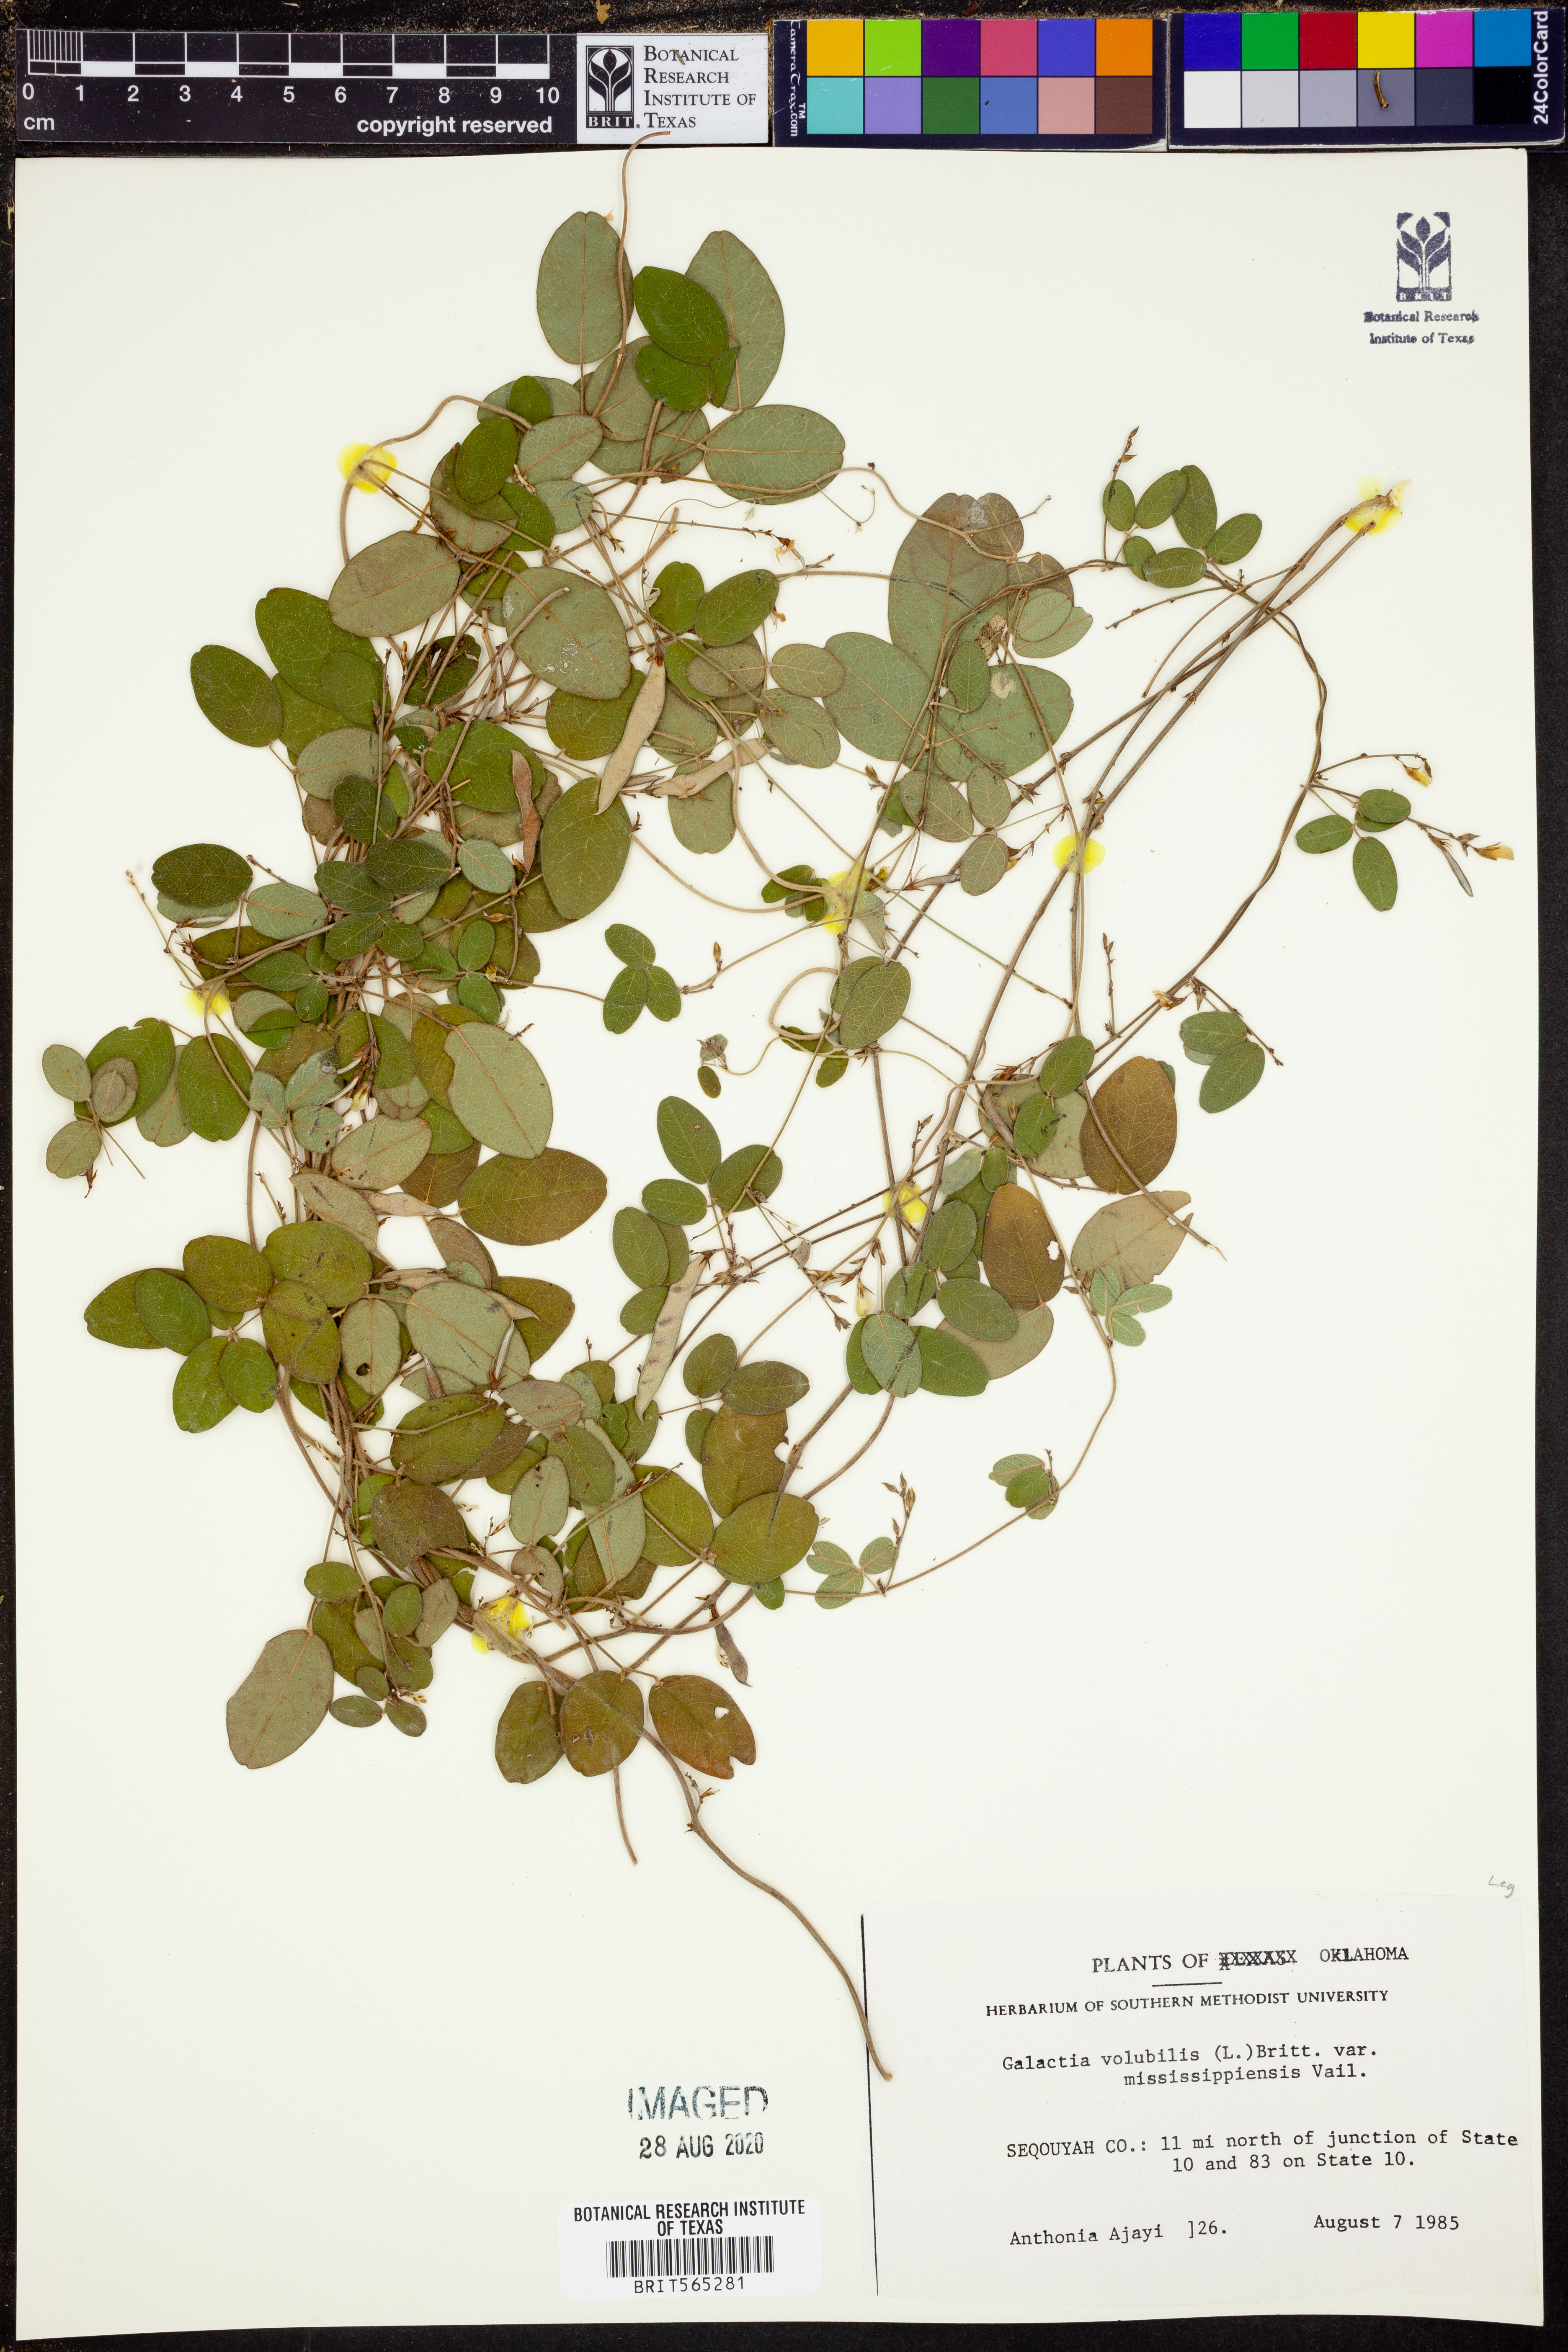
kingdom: Plantae
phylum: Tracheophyta
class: Magnoliopsida
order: Fabales
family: Fabaceae
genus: Galactia
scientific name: Galactia volubilis
